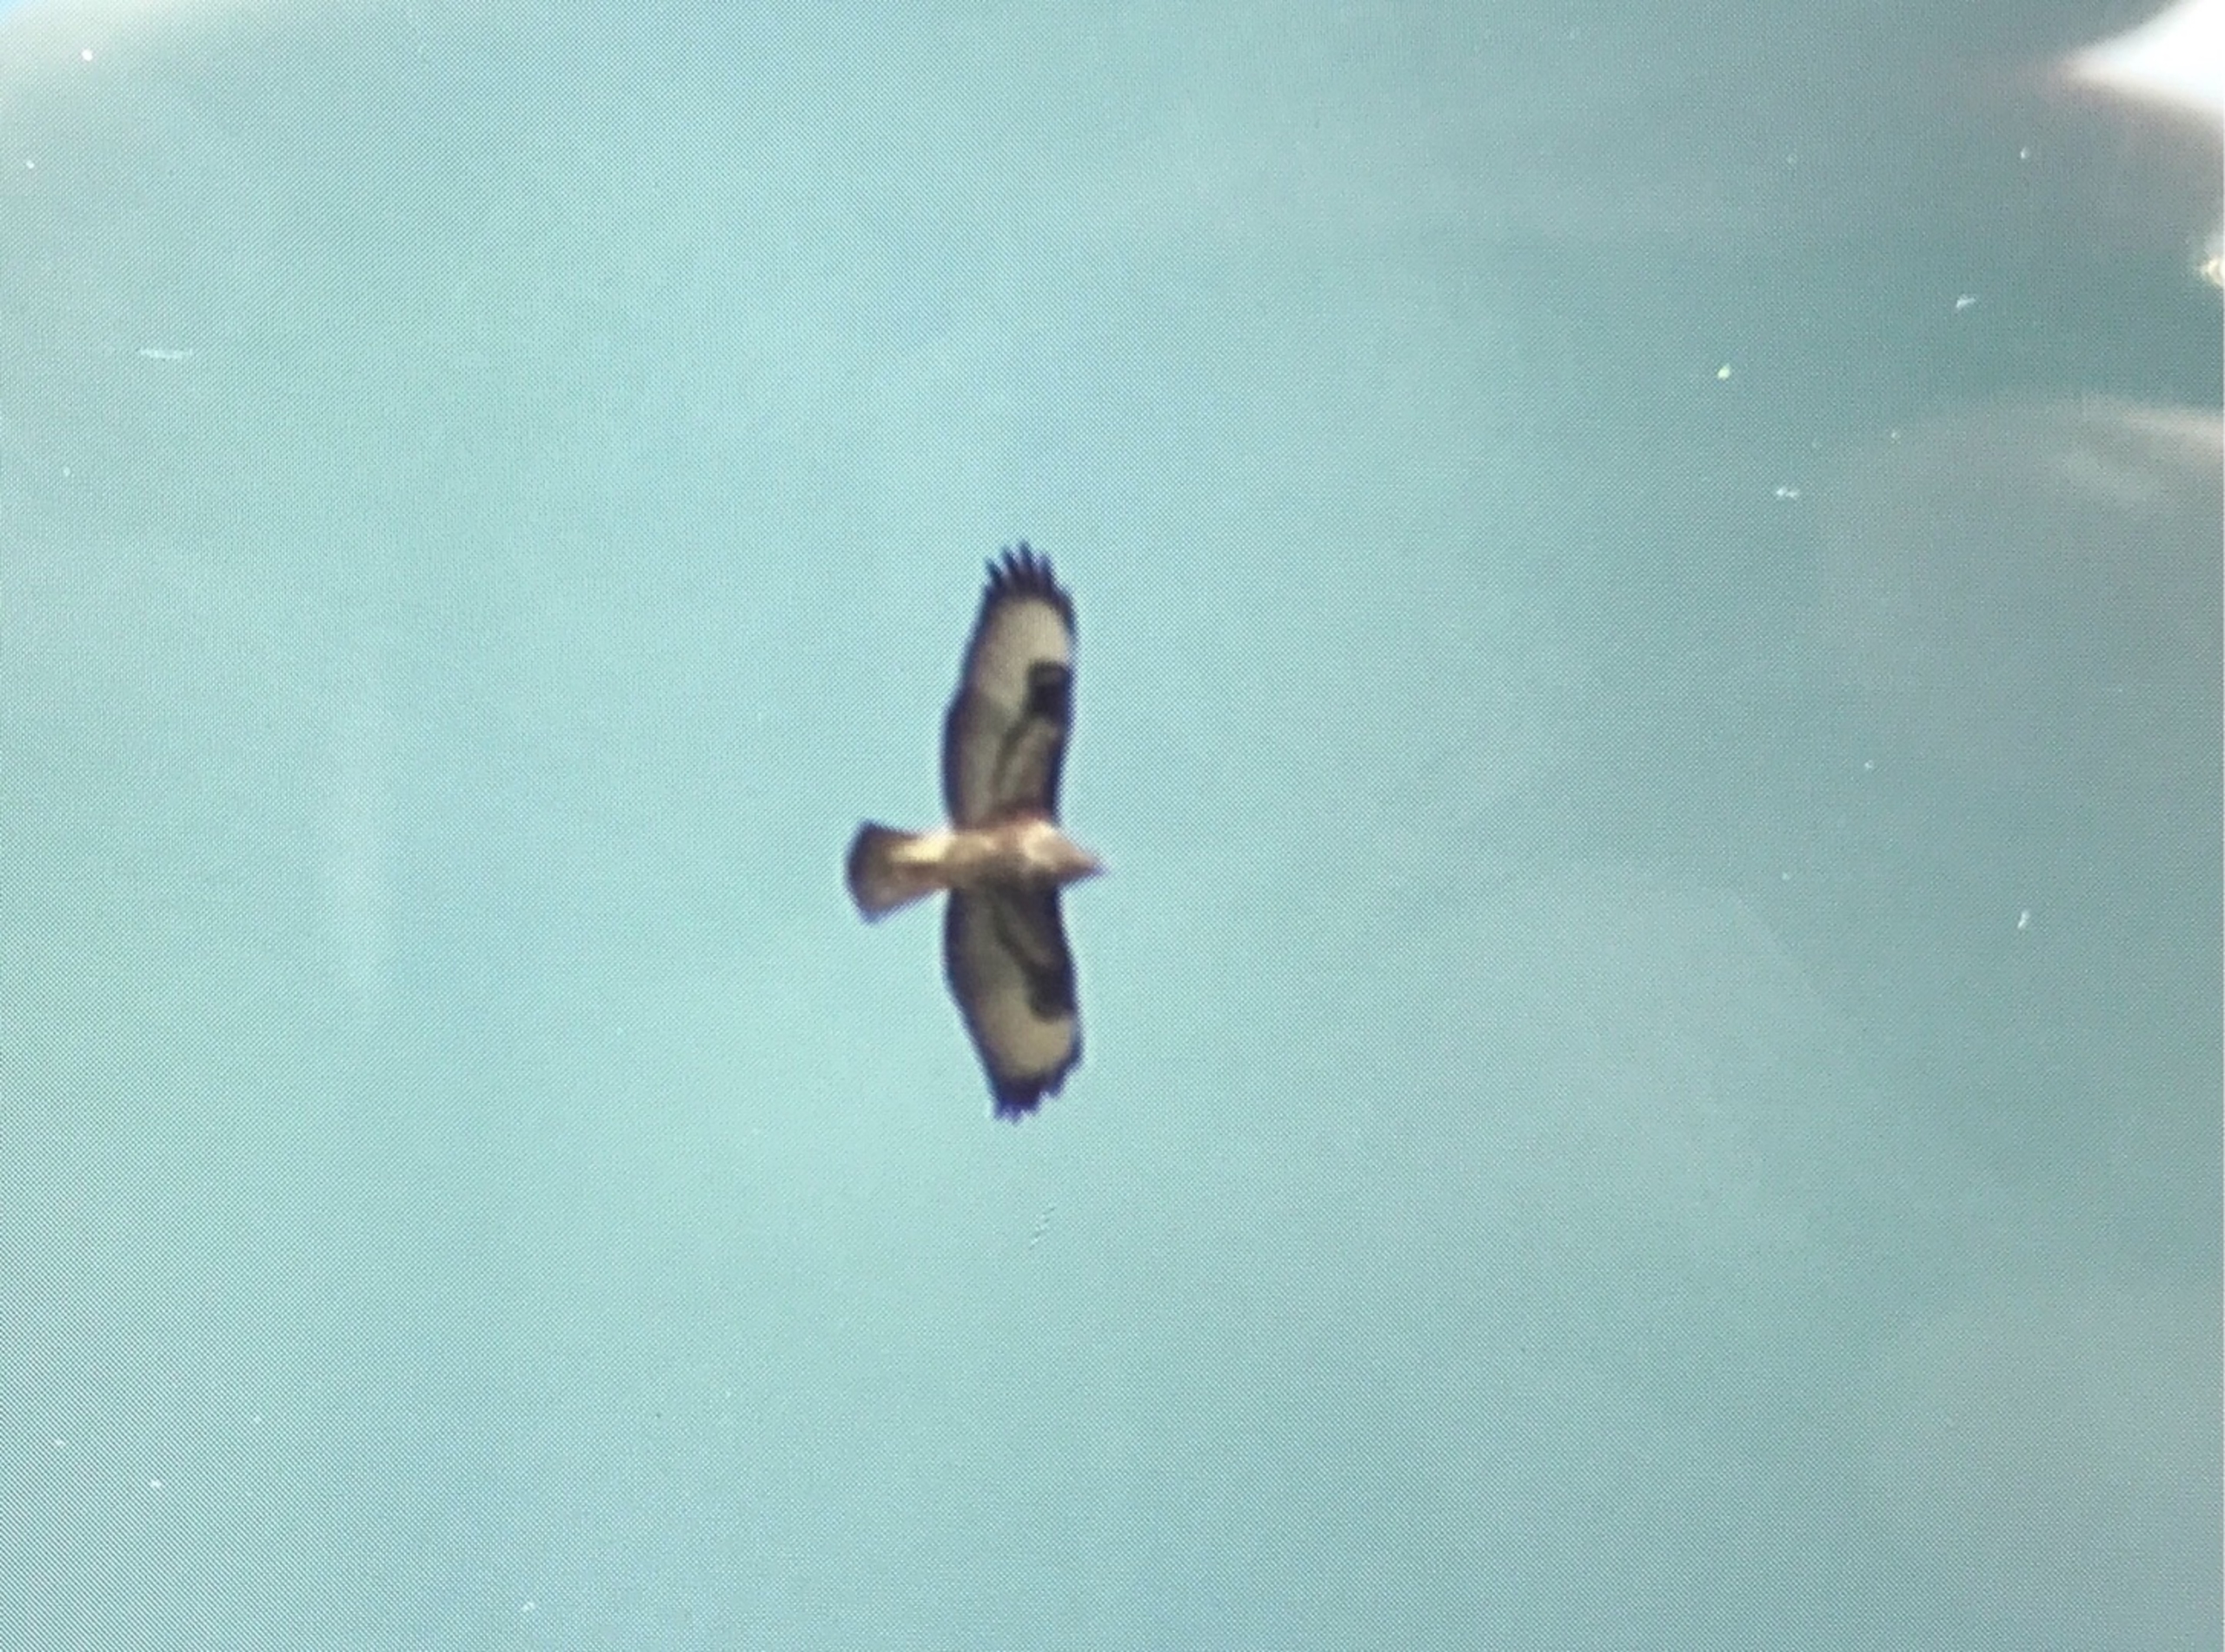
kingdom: Animalia
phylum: Chordata
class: Aves
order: Accipitriformes
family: Accipitridae
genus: Buteo
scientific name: Buteo buteo
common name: Musvåge
